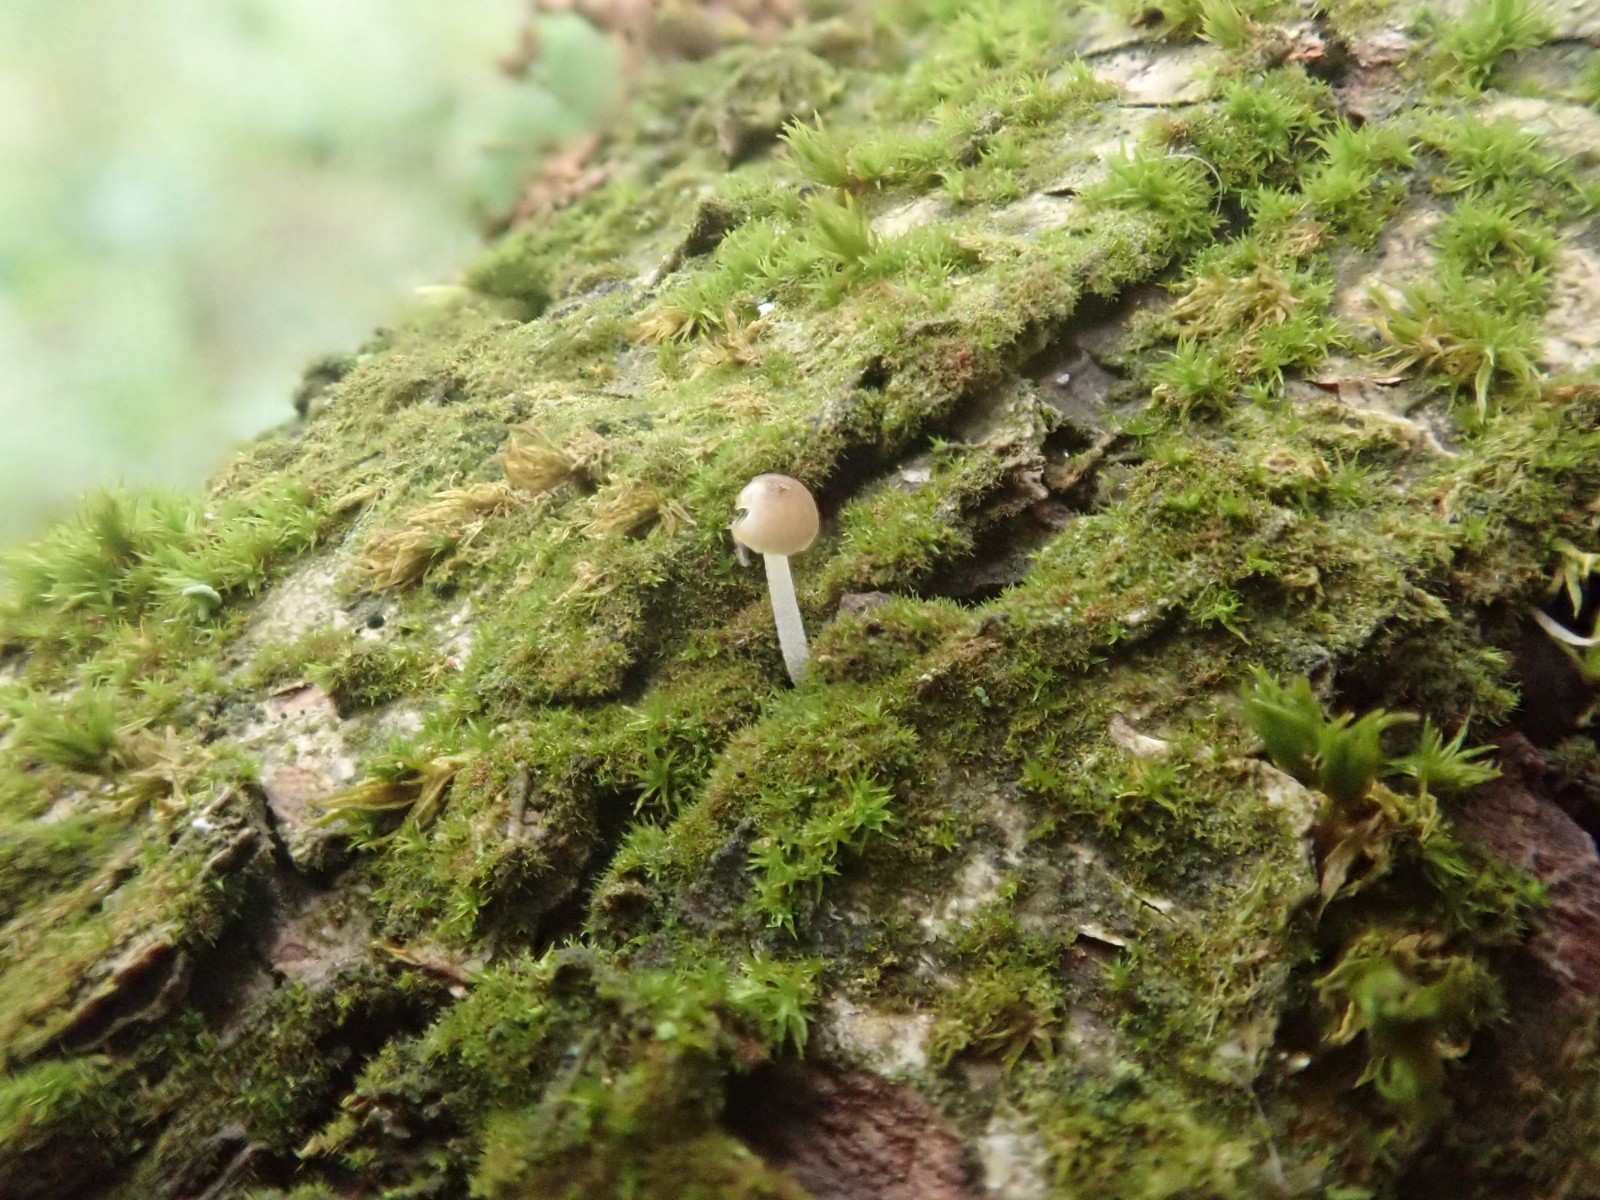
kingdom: Fungi
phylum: Basidiomycota
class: Agaricomycetes
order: Agaricales
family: Mycenaceae
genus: Mycena
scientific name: Mycena
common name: huesvamp
